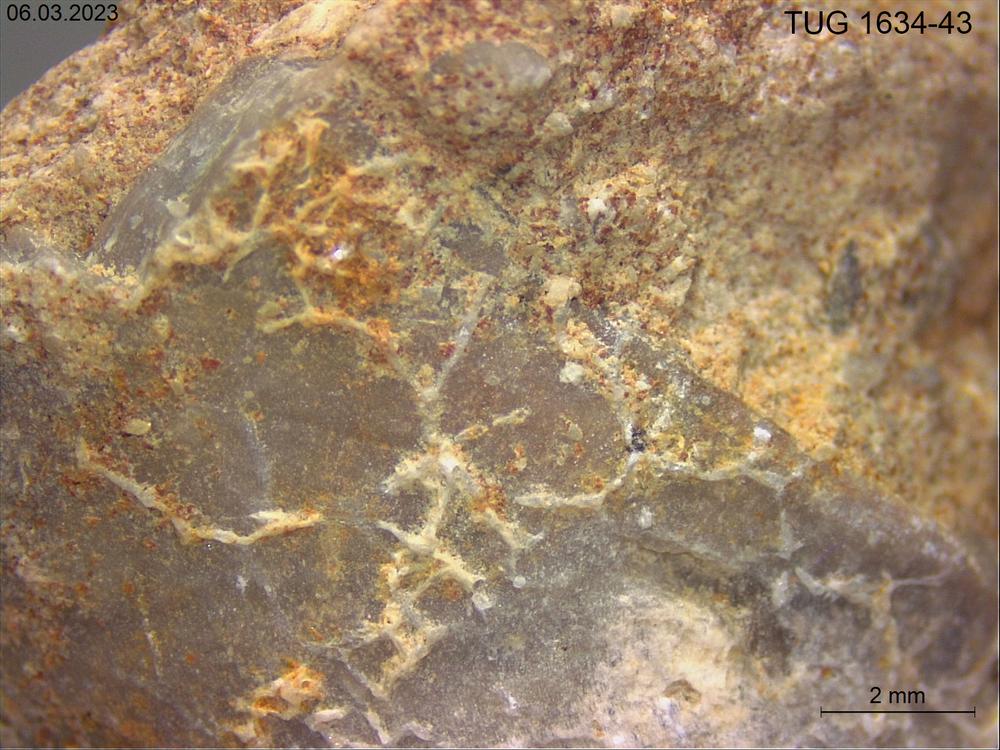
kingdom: Animalia
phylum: Bryozoa
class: Stenolaemata
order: Cyclostomatida
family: Corynotrypidae
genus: Corynotrypa
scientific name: Corynotrypa
